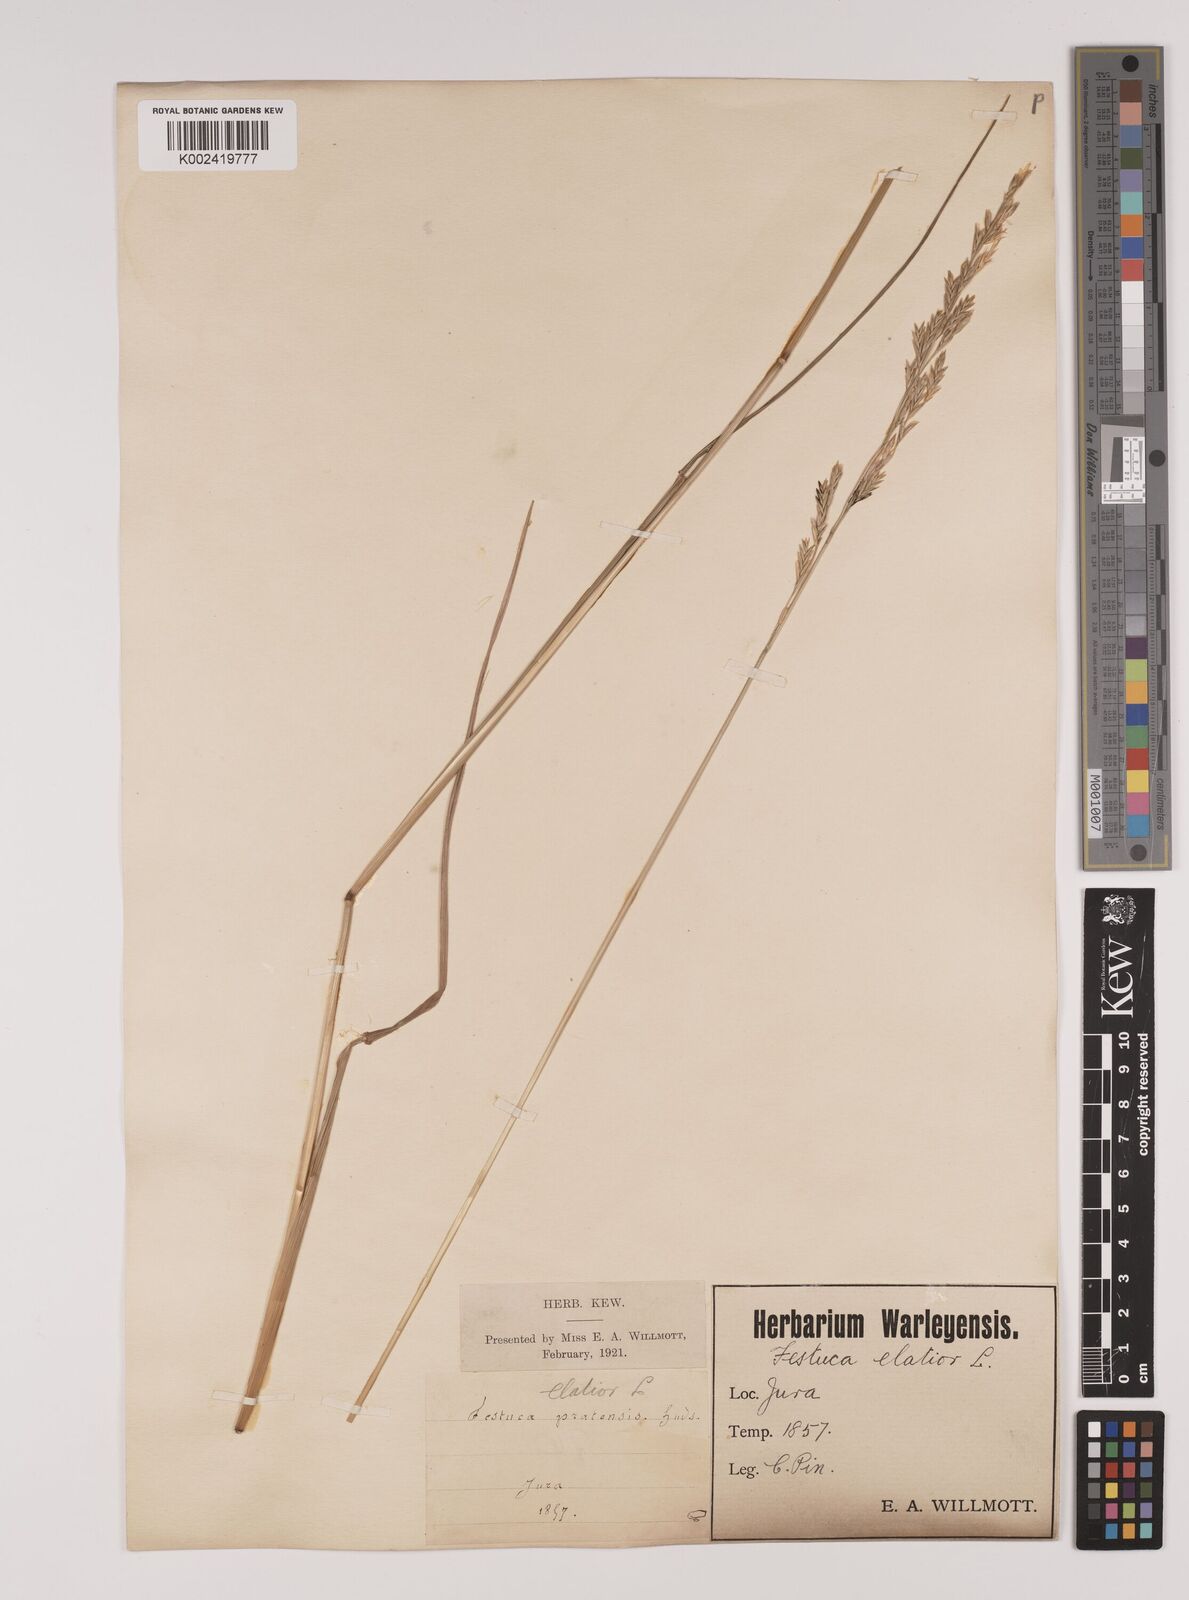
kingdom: Plantae
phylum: Tracheophyta
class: Liliopsida
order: Poales
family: Poaceae
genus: Lolium
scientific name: Lolium pratense
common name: Dover grass
